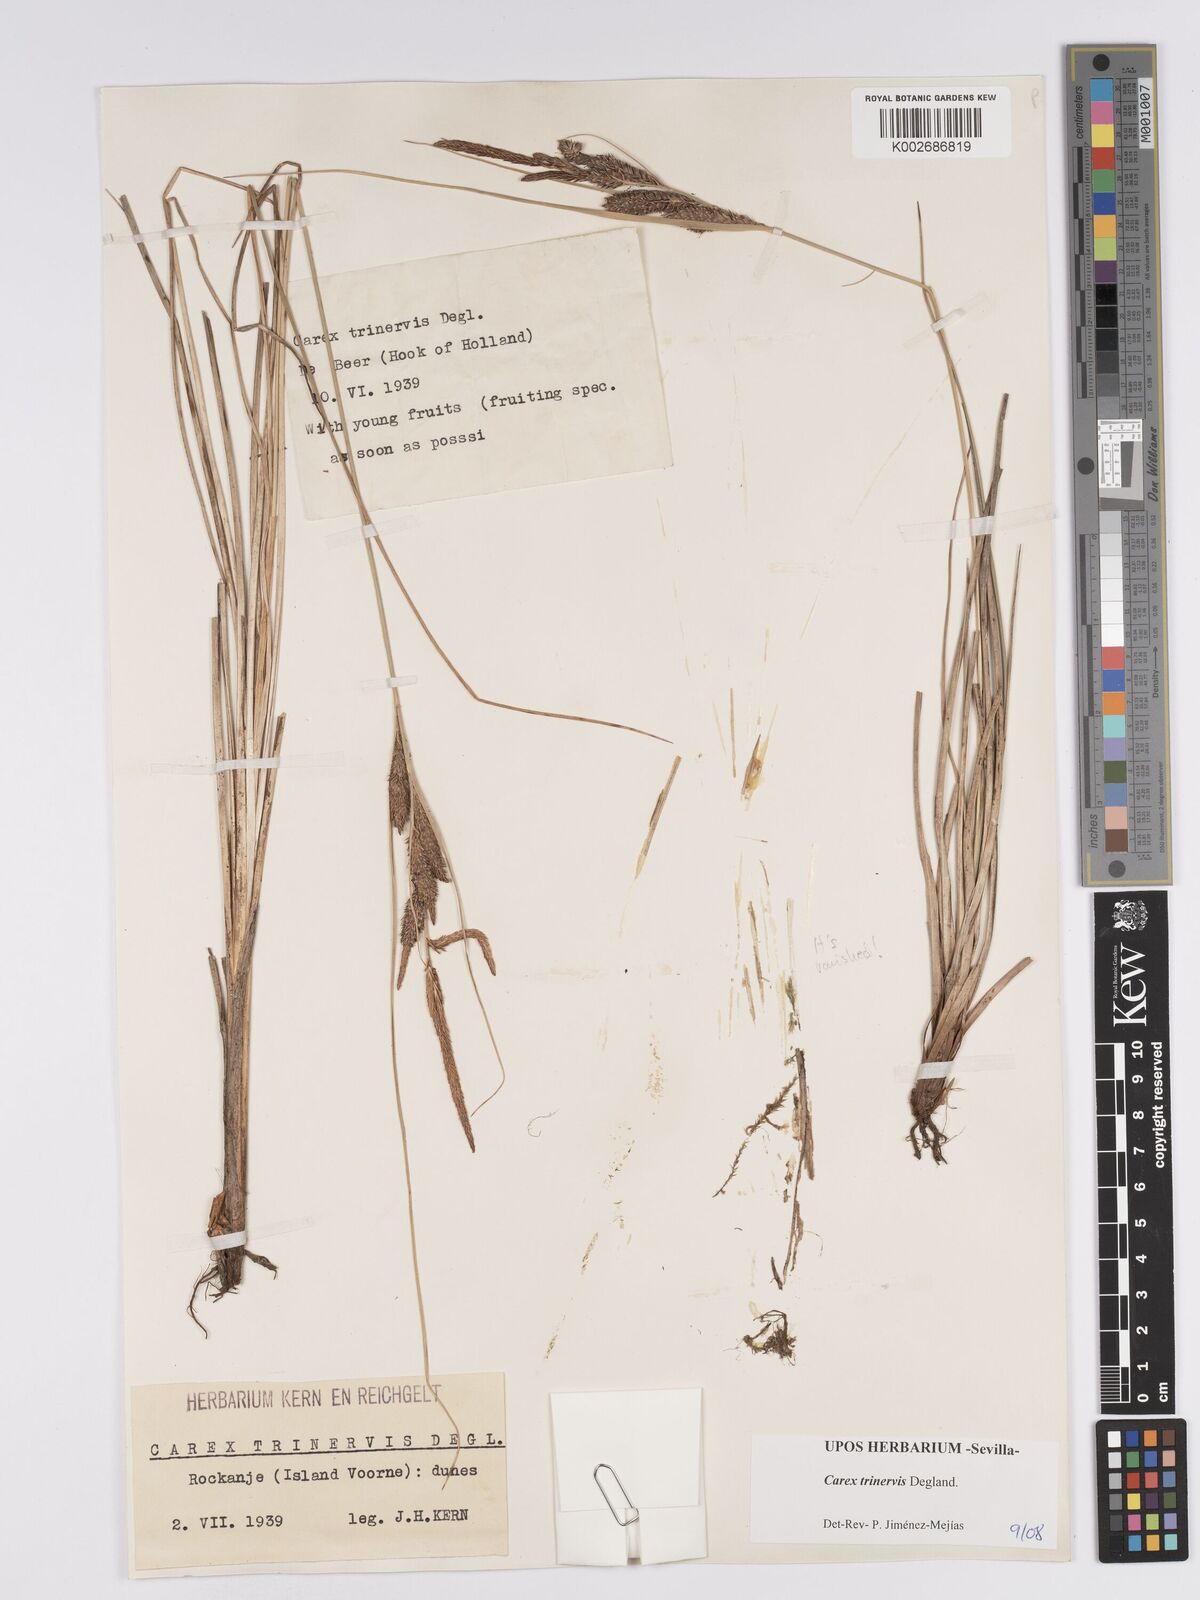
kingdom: Plantae
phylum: Tracheophyta
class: Liliopsida
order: Poales
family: Cyperaceae
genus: Carex
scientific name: Carex trinervis
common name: Three-nerved sedge
